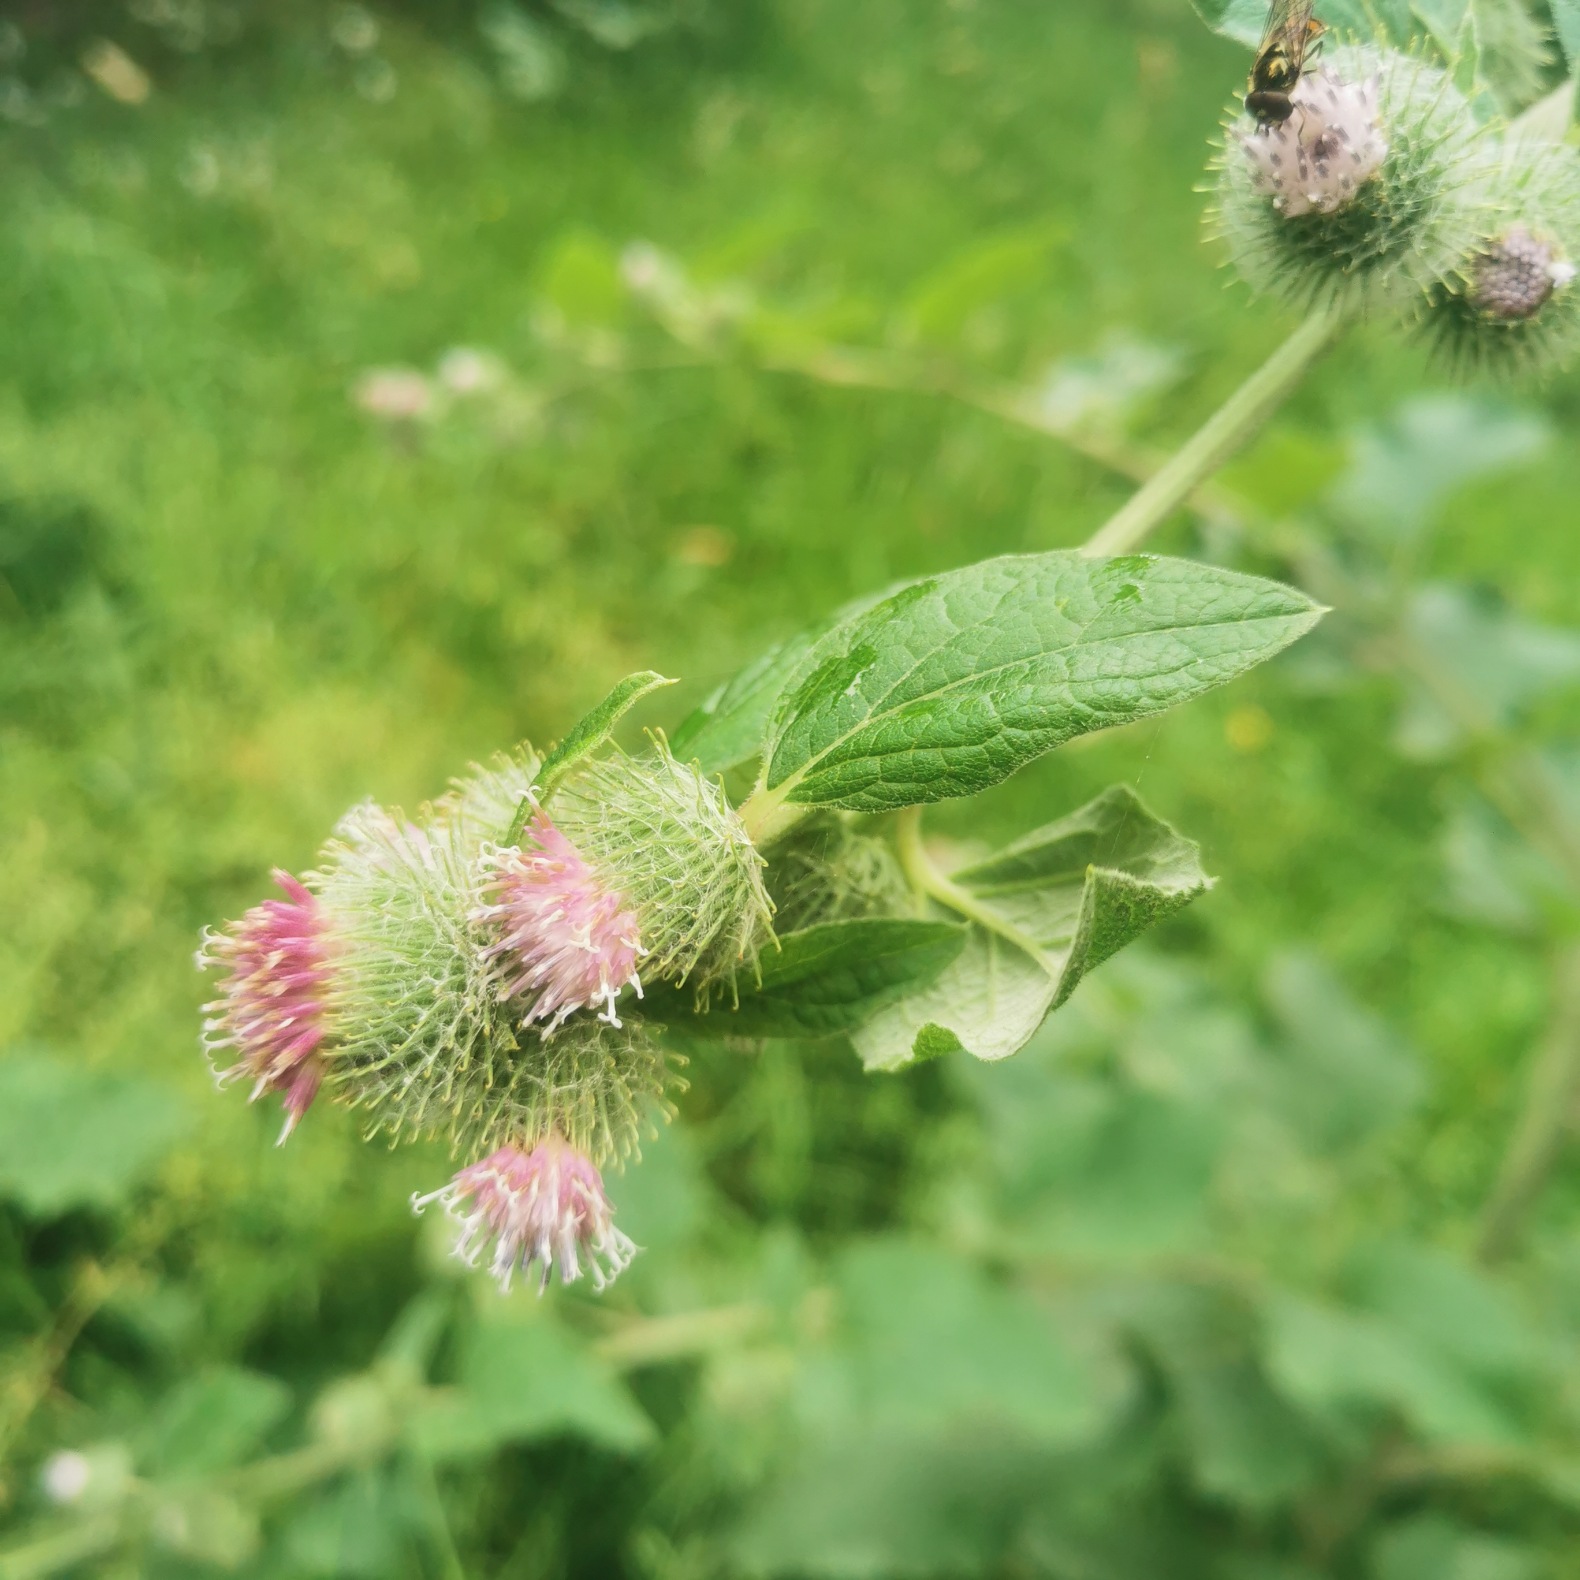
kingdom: Plantae
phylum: Tracheophyta
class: Magnoliopsida
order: Asterales
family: Asteraceae
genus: Arctium
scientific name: Arctium nemorosum
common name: Skov-burre
